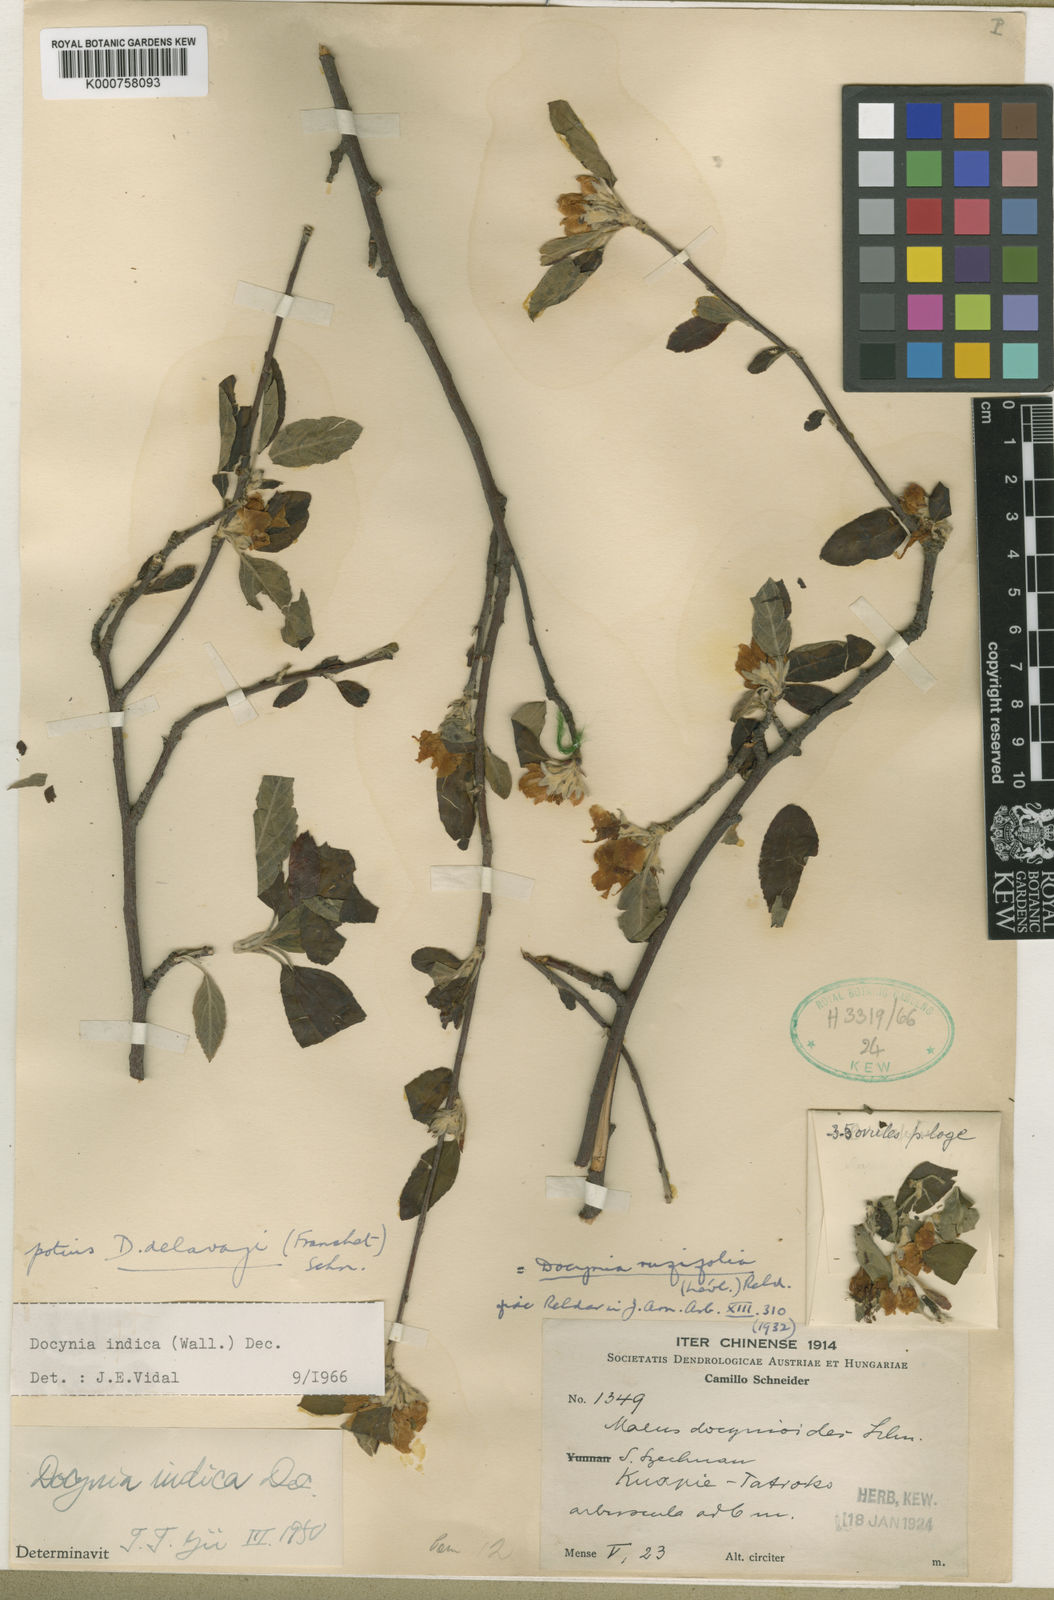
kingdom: Plantae
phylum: Tracheophyta
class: Magnoliopsida
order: Rosales
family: Rosaceae
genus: Malus
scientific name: Malus docynioides
